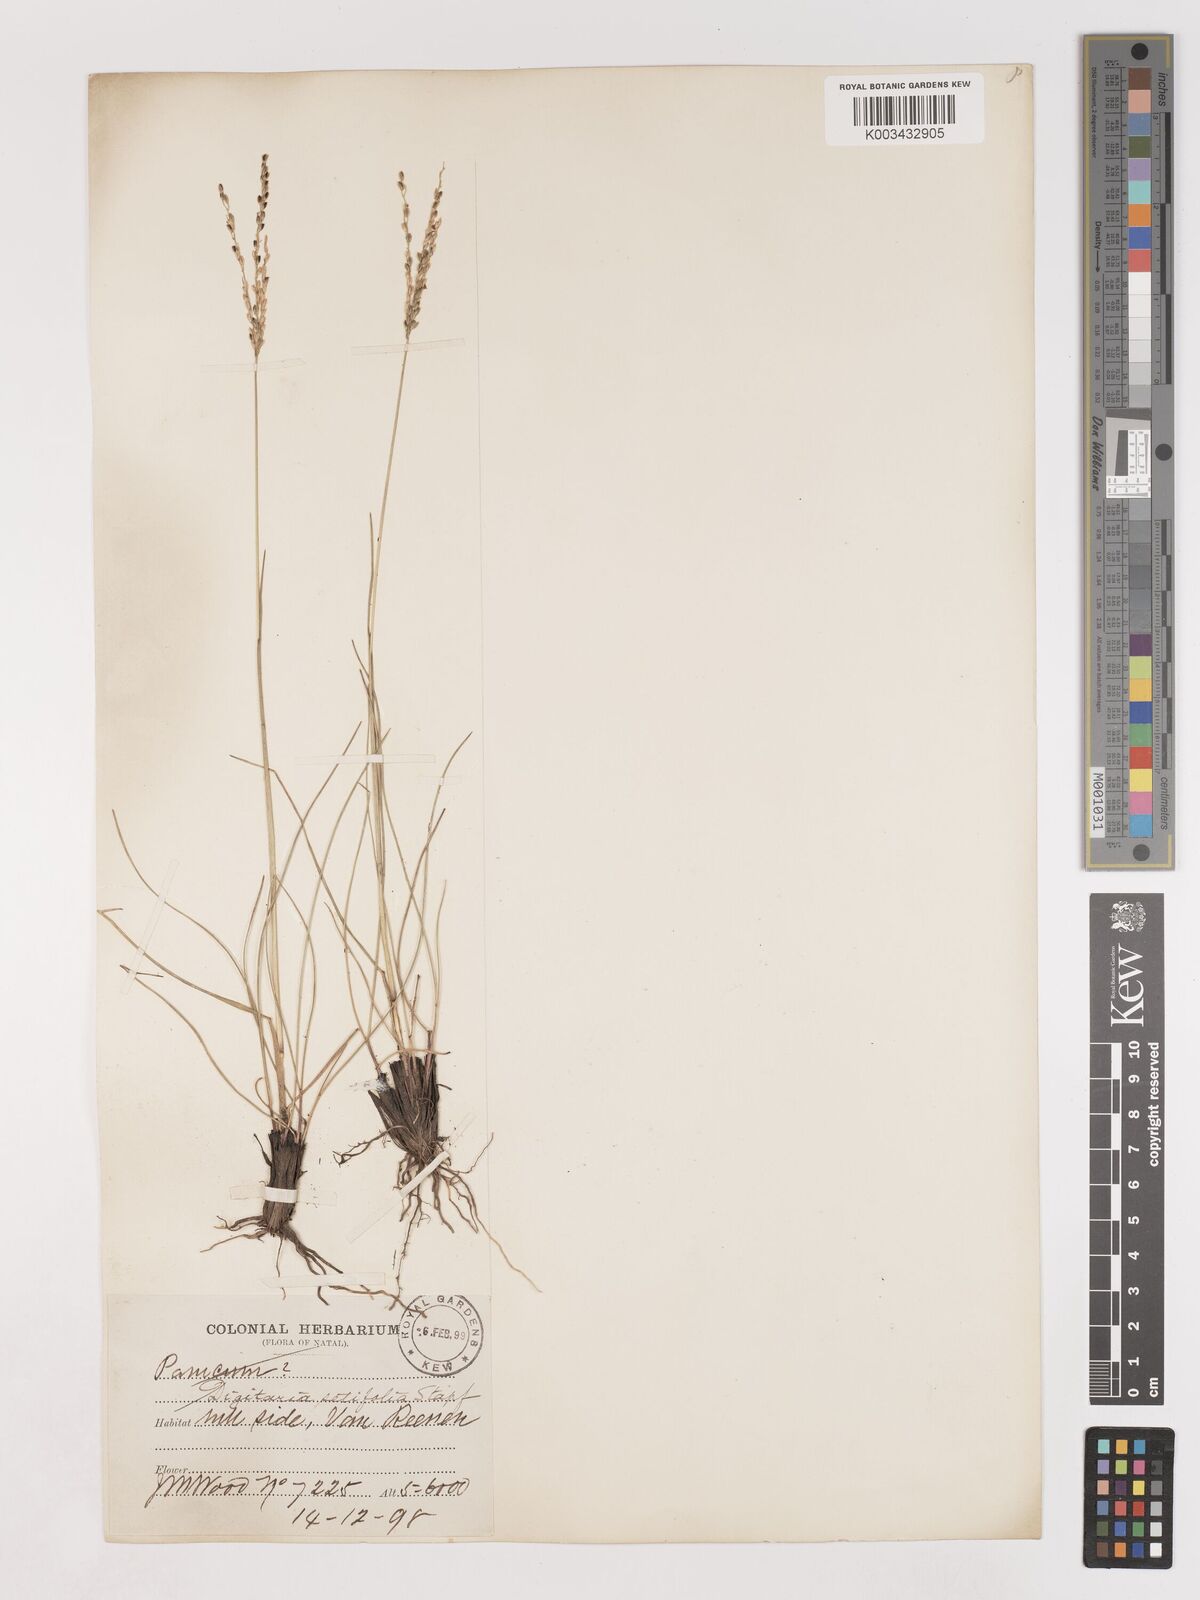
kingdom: Plantae
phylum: Tracheophyta
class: Liliopsida
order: Poales
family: Poaceae
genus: Digitaria
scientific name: Digitaria setifolia
